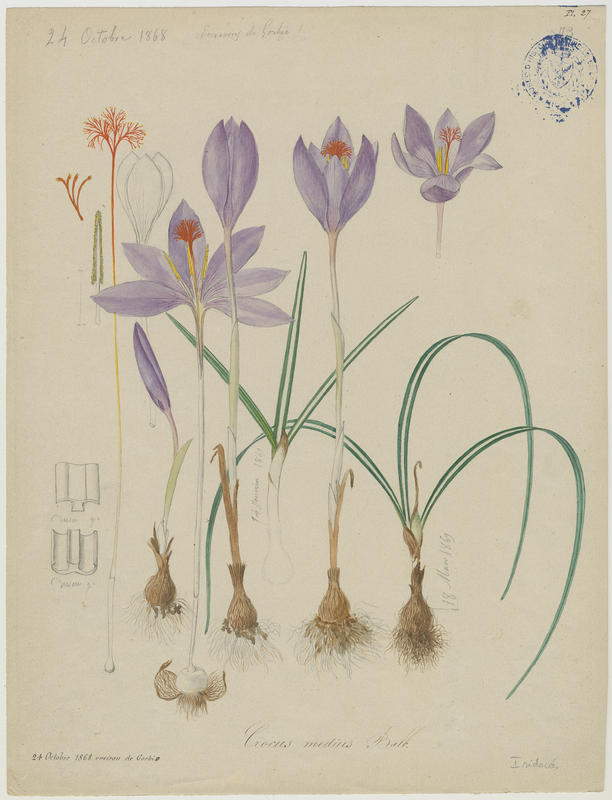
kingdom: Plantae
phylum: Tracheophyta
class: Liliopsida
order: Asparagales
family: Iridaceae
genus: Crocus
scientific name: Crocus ligusticus
